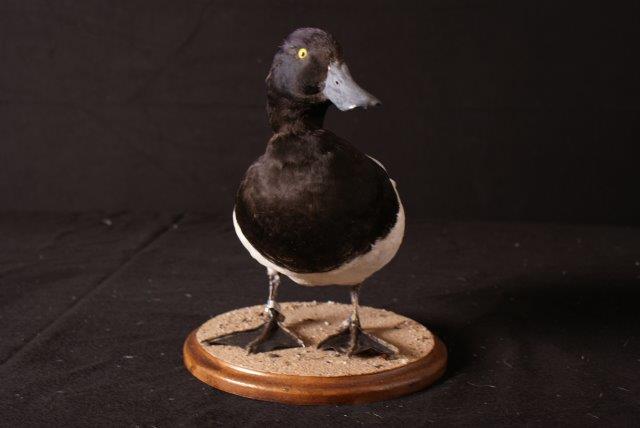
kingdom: Animalia
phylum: Chordata
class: Aves
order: Anseriformes
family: Anatidae
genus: Aythya
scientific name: Aythya marila
